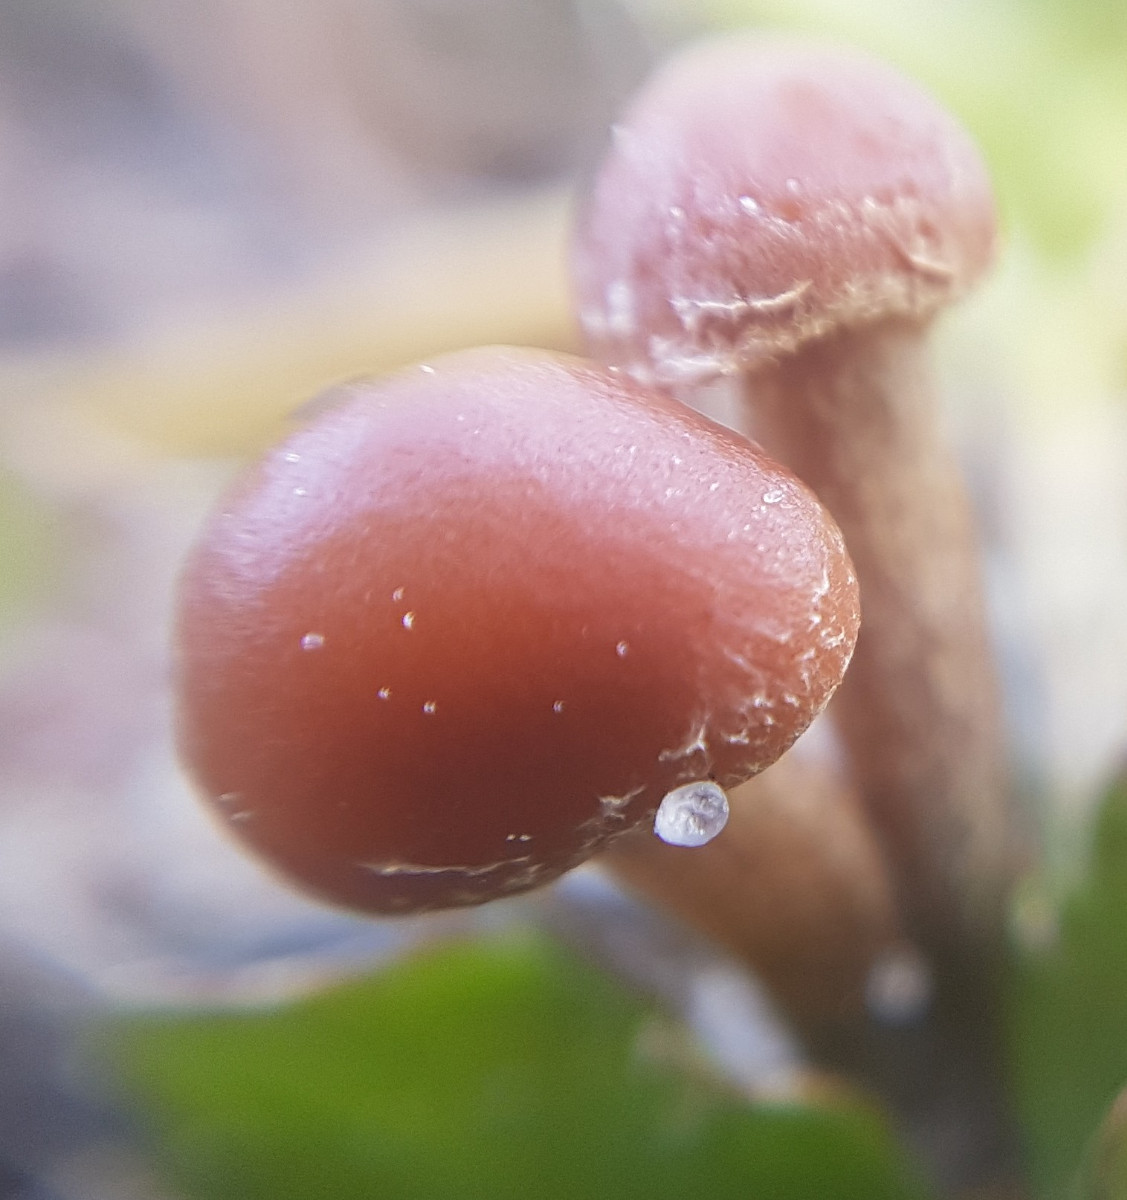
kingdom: Fungi
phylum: Basidiomycota
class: Agaricomycetes
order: Agaricales
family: Strophariaceae
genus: Deconica
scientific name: Deconica
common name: stråhat
